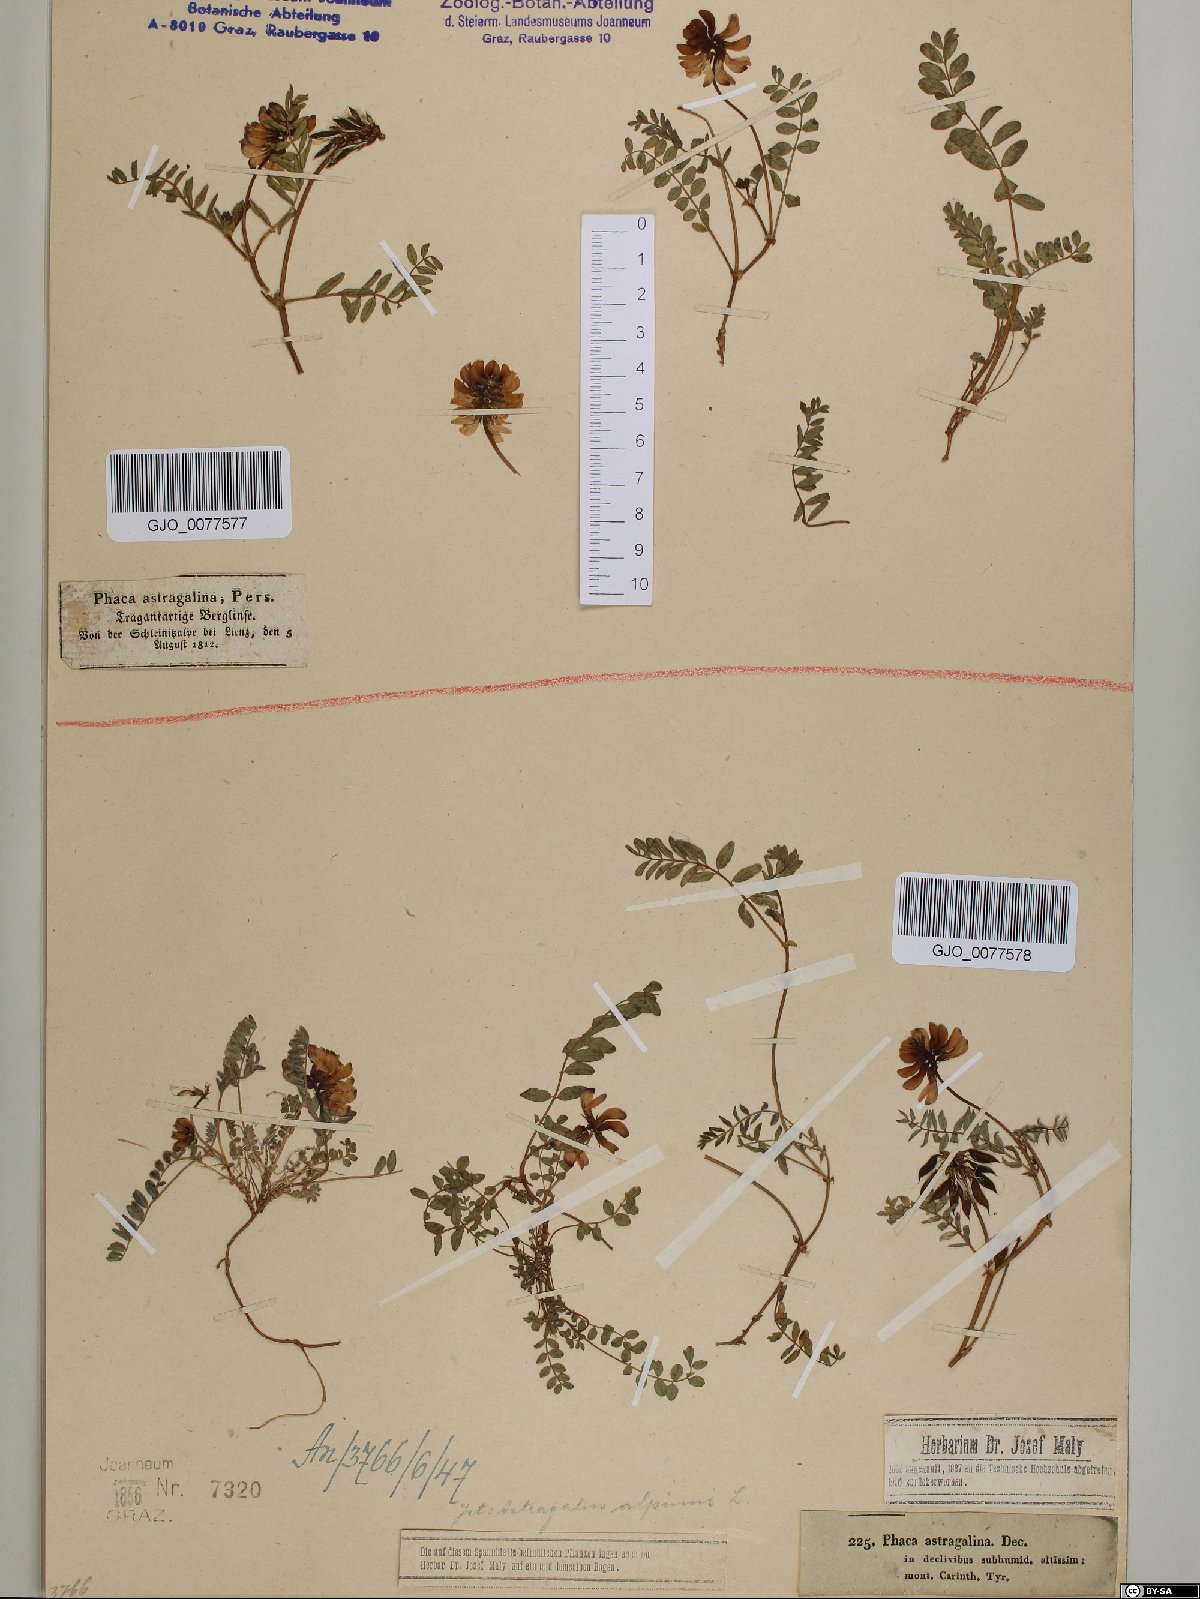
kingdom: Plantae
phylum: Tracheophyta
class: Magnoliopsida
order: Fabales
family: Fabaceae
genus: Astragalus
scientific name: Astragalus alpinus
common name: Alpine milk-vetch
